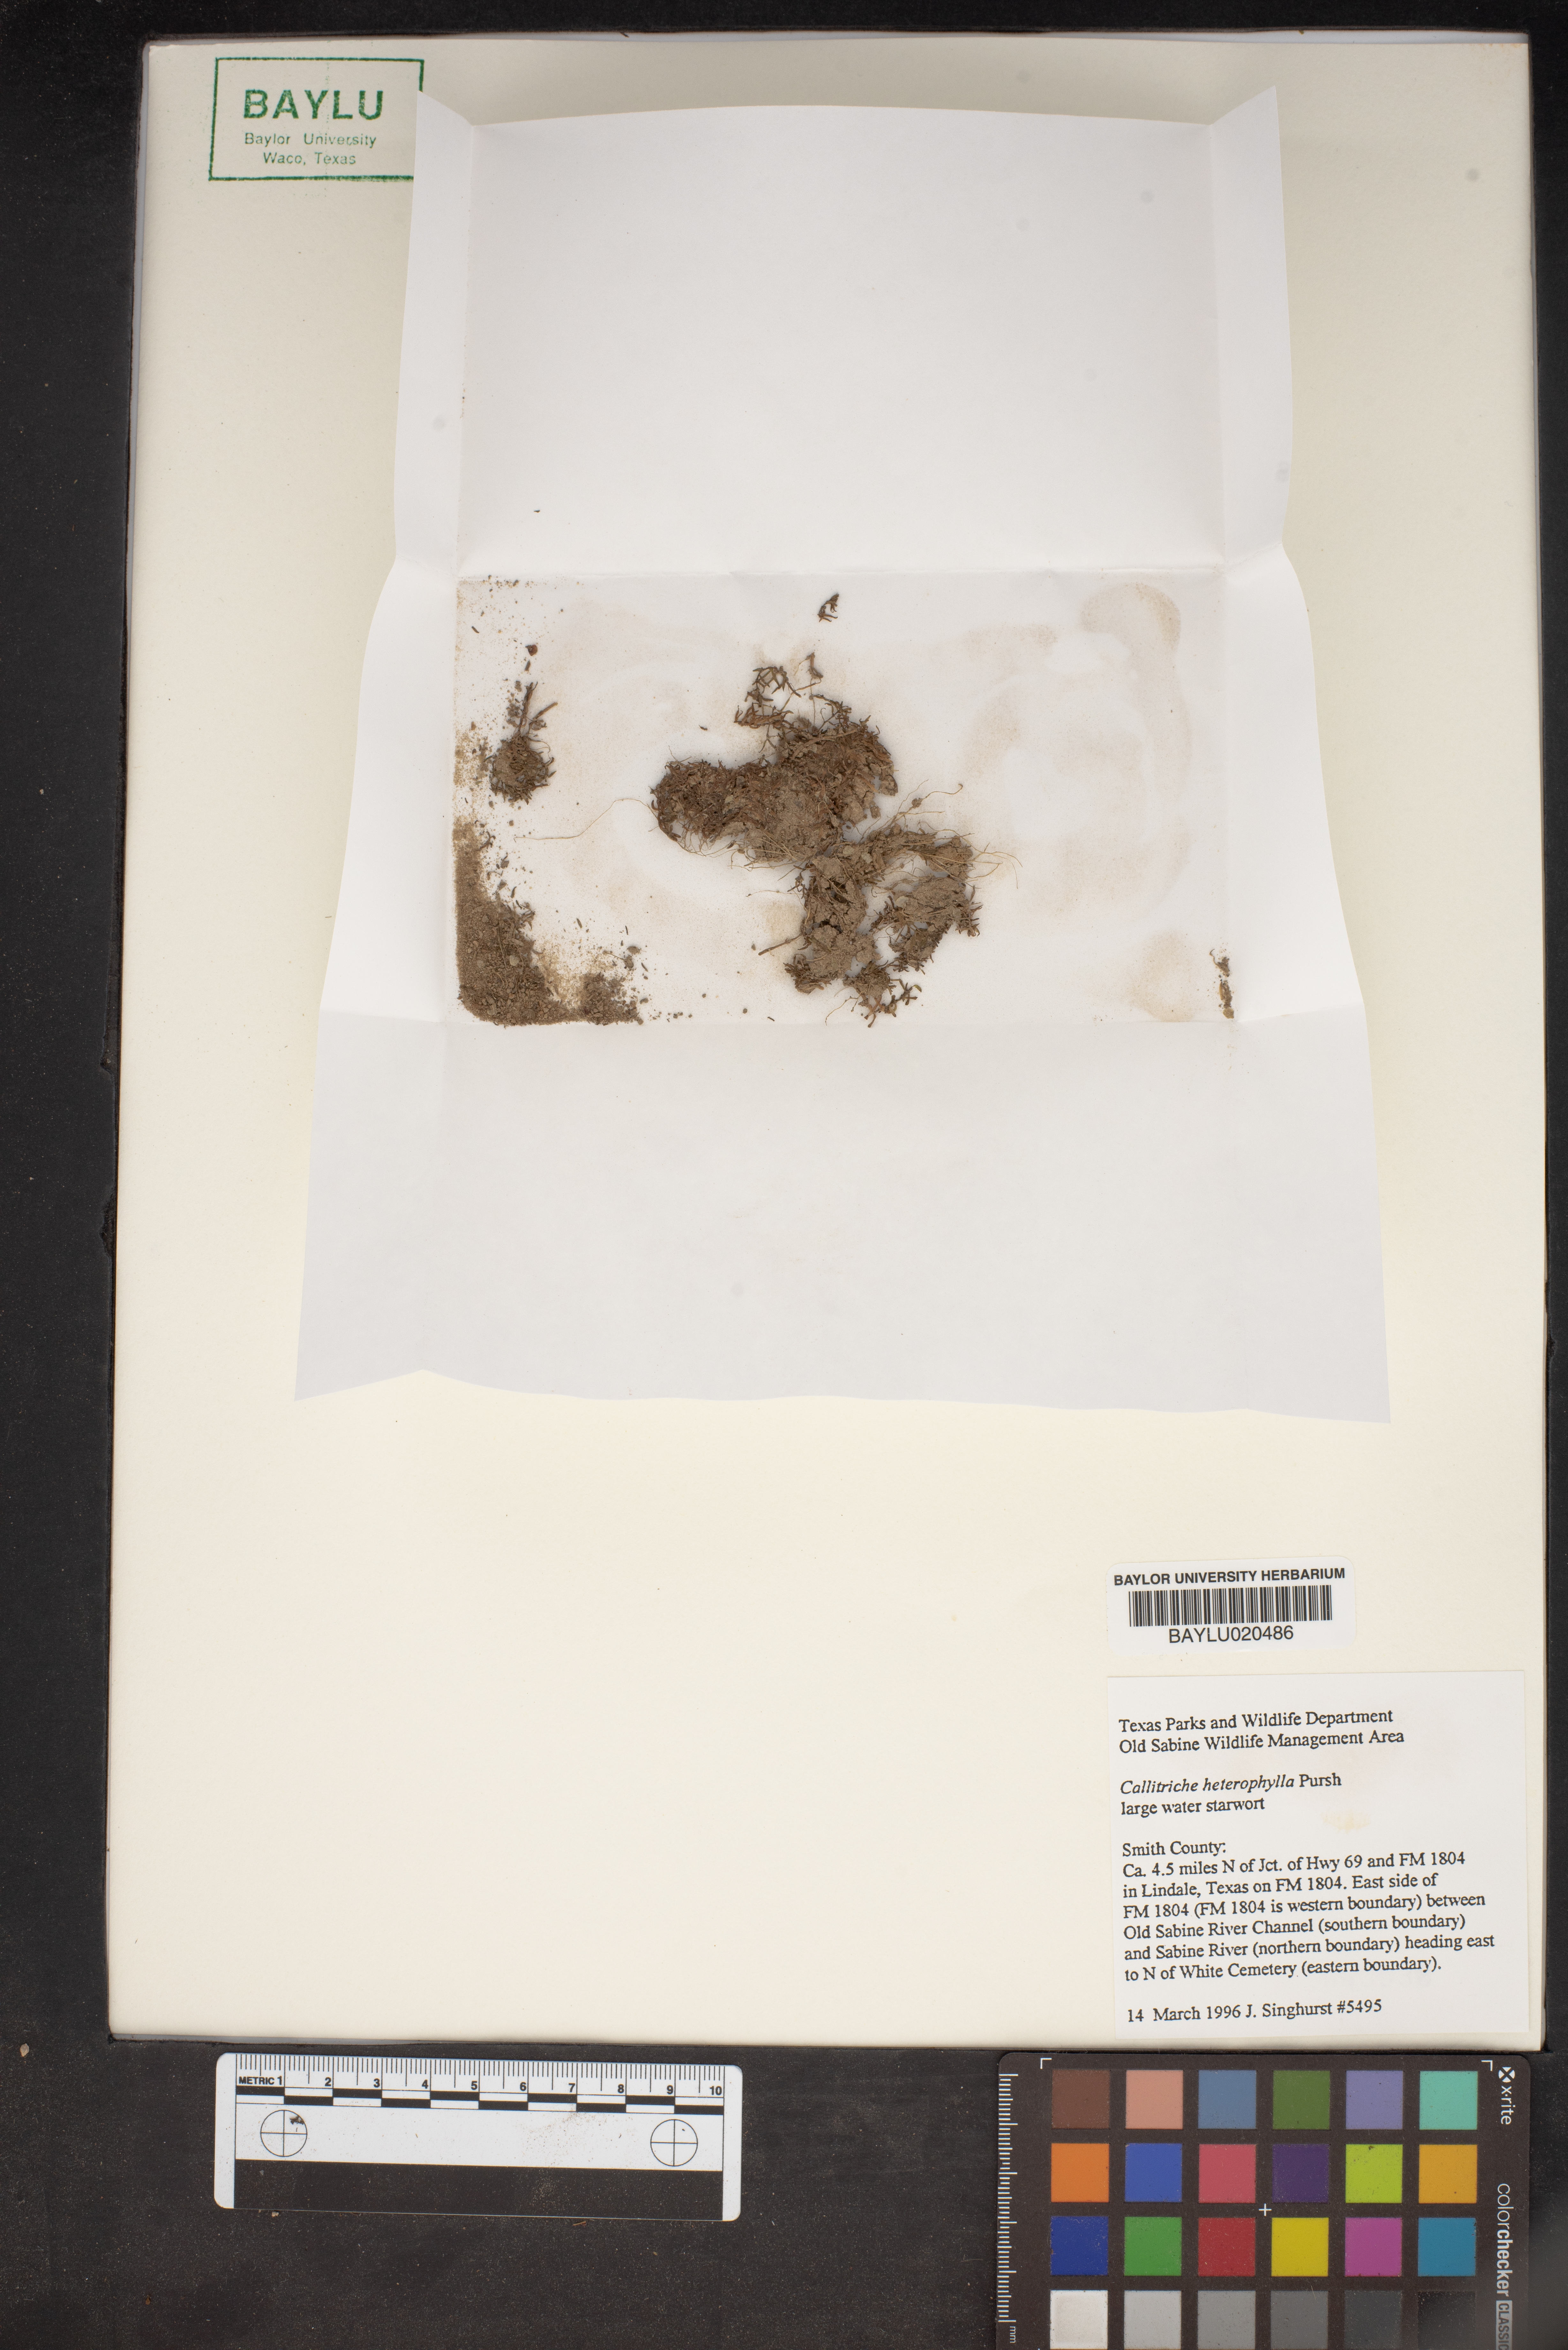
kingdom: Plantae
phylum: Tracheophyta
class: Magnoliopsida
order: Lamiales
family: Plantaginaceae
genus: Callitriche
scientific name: Callitriche heterophylla
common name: Two-headed water-starwort
